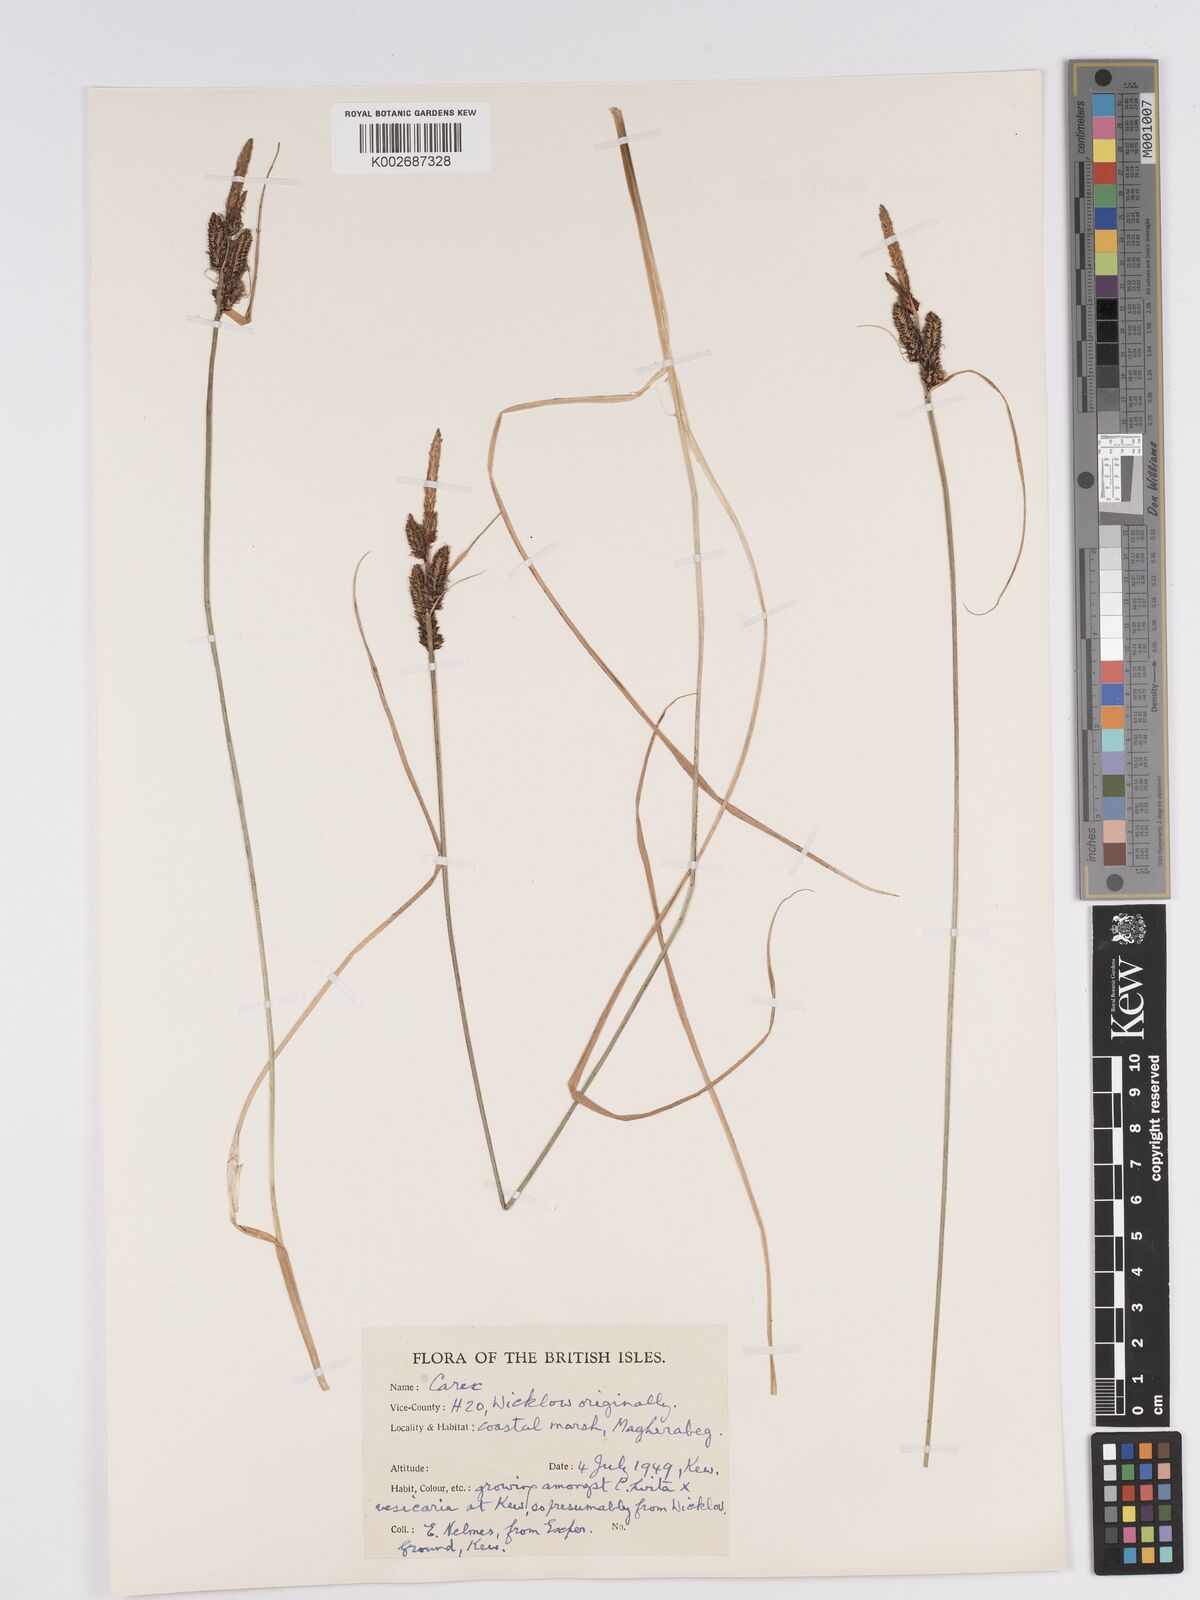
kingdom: Plantae
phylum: Tracheophyta
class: Liliopsida
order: Poales
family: Cyperaceae
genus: Carex
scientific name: Carex nigra
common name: Common sedge
